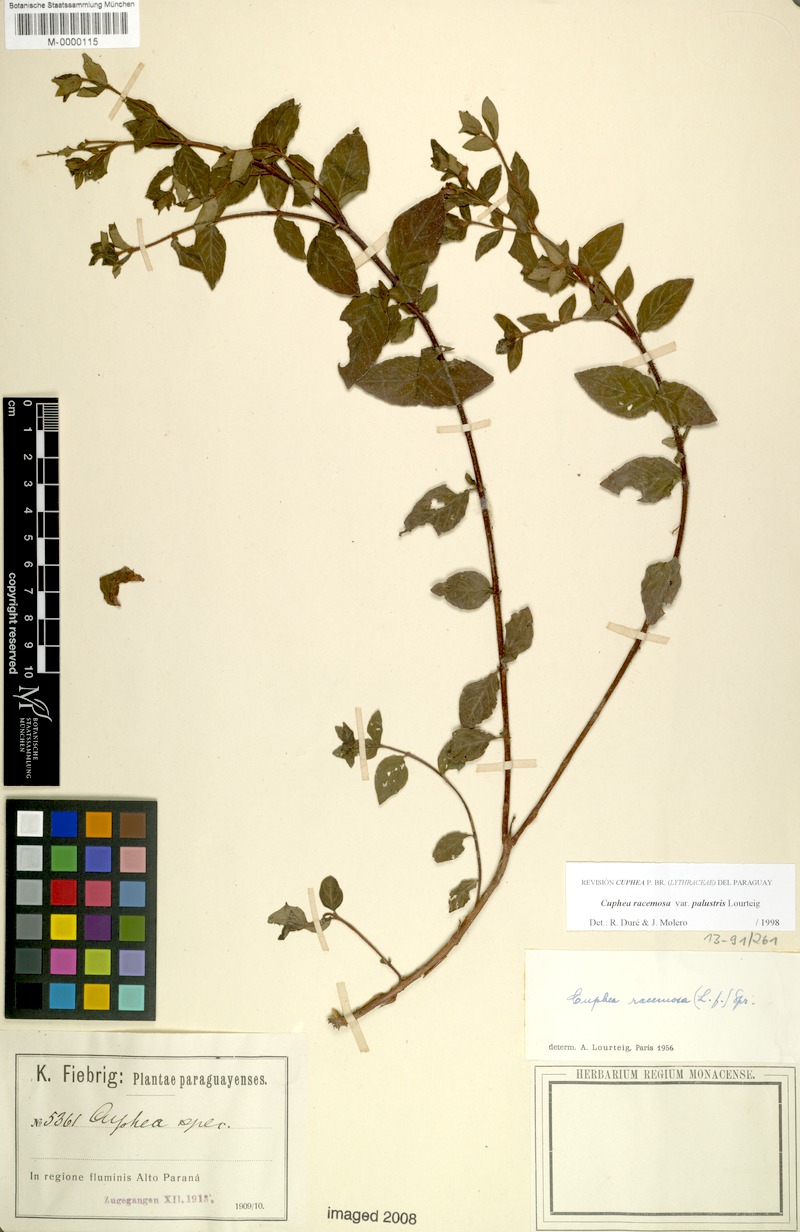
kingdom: Plantae
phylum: Tracheophyta
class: Magnoliopsida
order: Myrtales
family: Lythraceae
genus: Cuphea
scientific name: Cuphea racemosa
